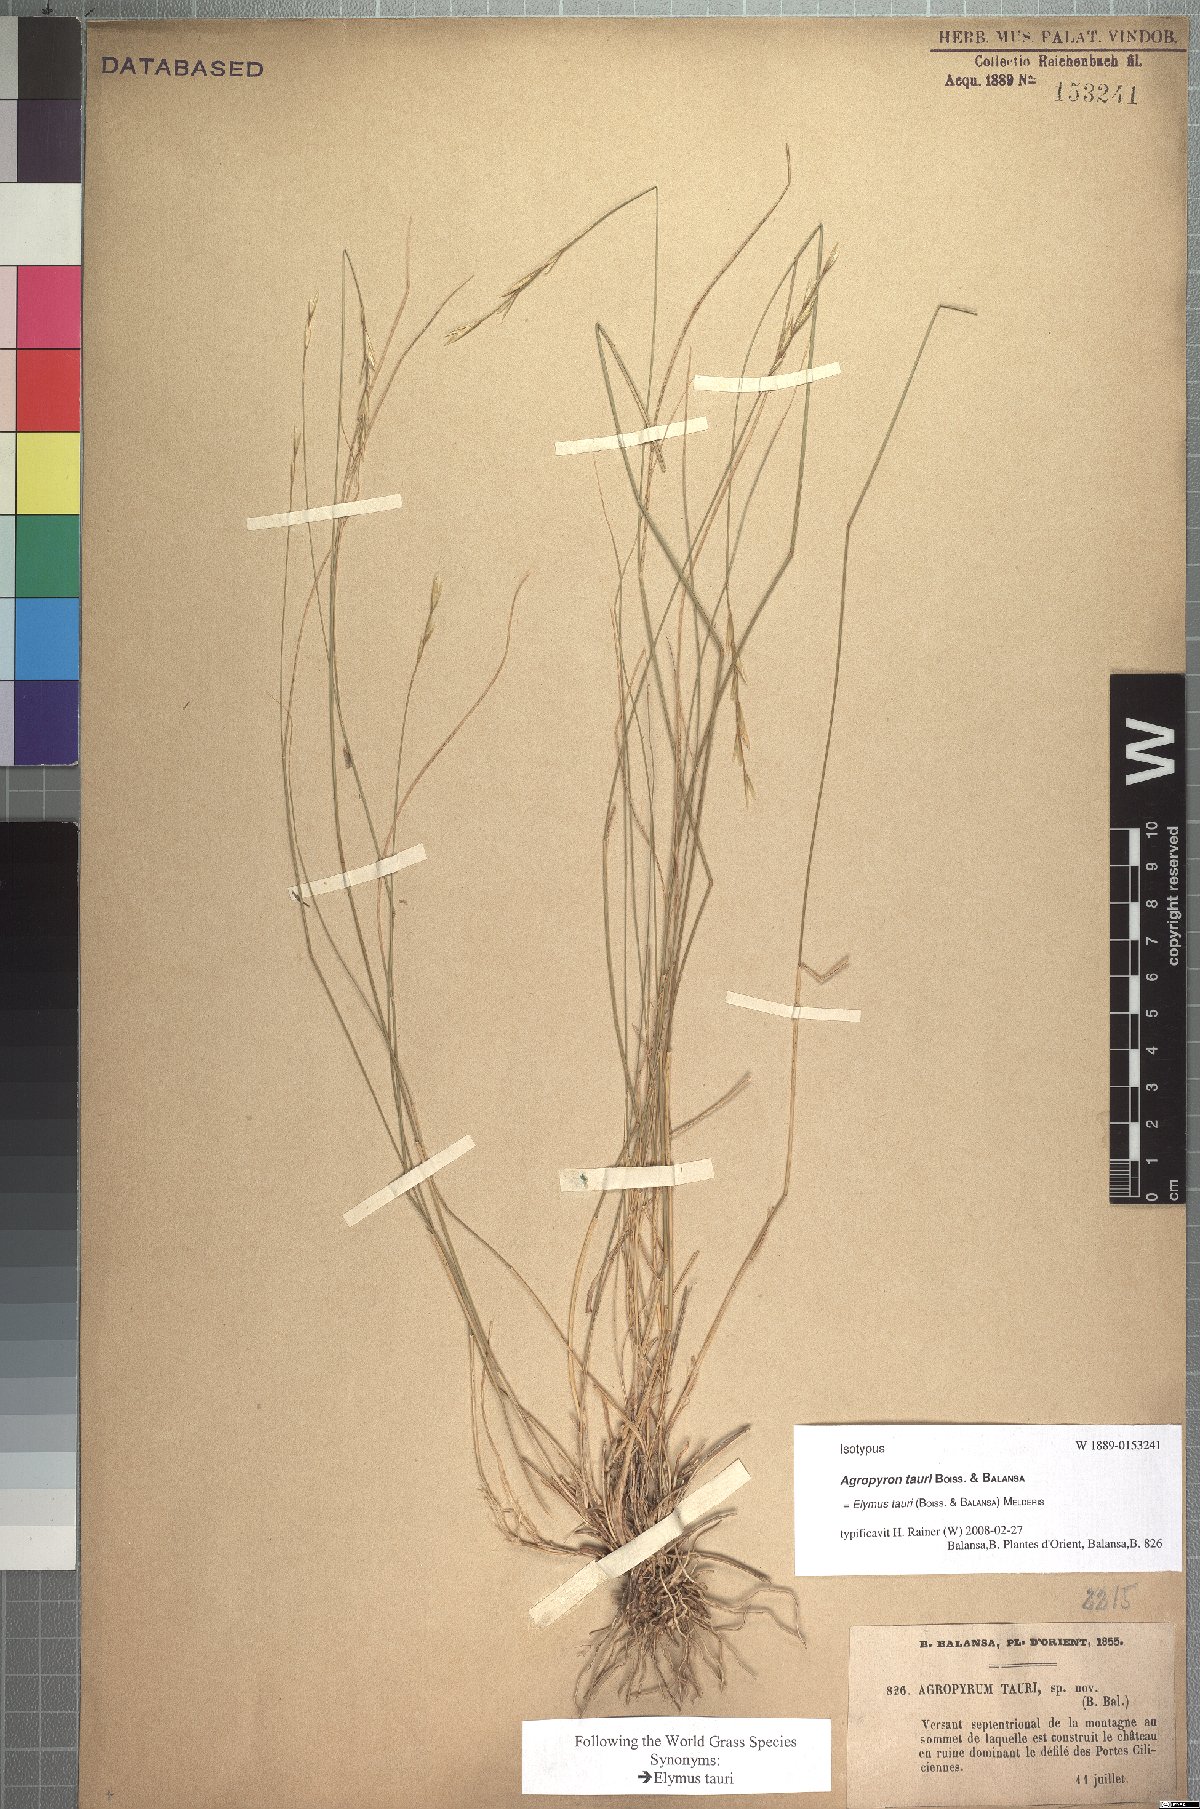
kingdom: Plantae
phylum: Tracheophyta
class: Liliopsida
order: Poales
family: Poaceae
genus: Pseudoroegneria
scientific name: Pseudoroegneria tauri
